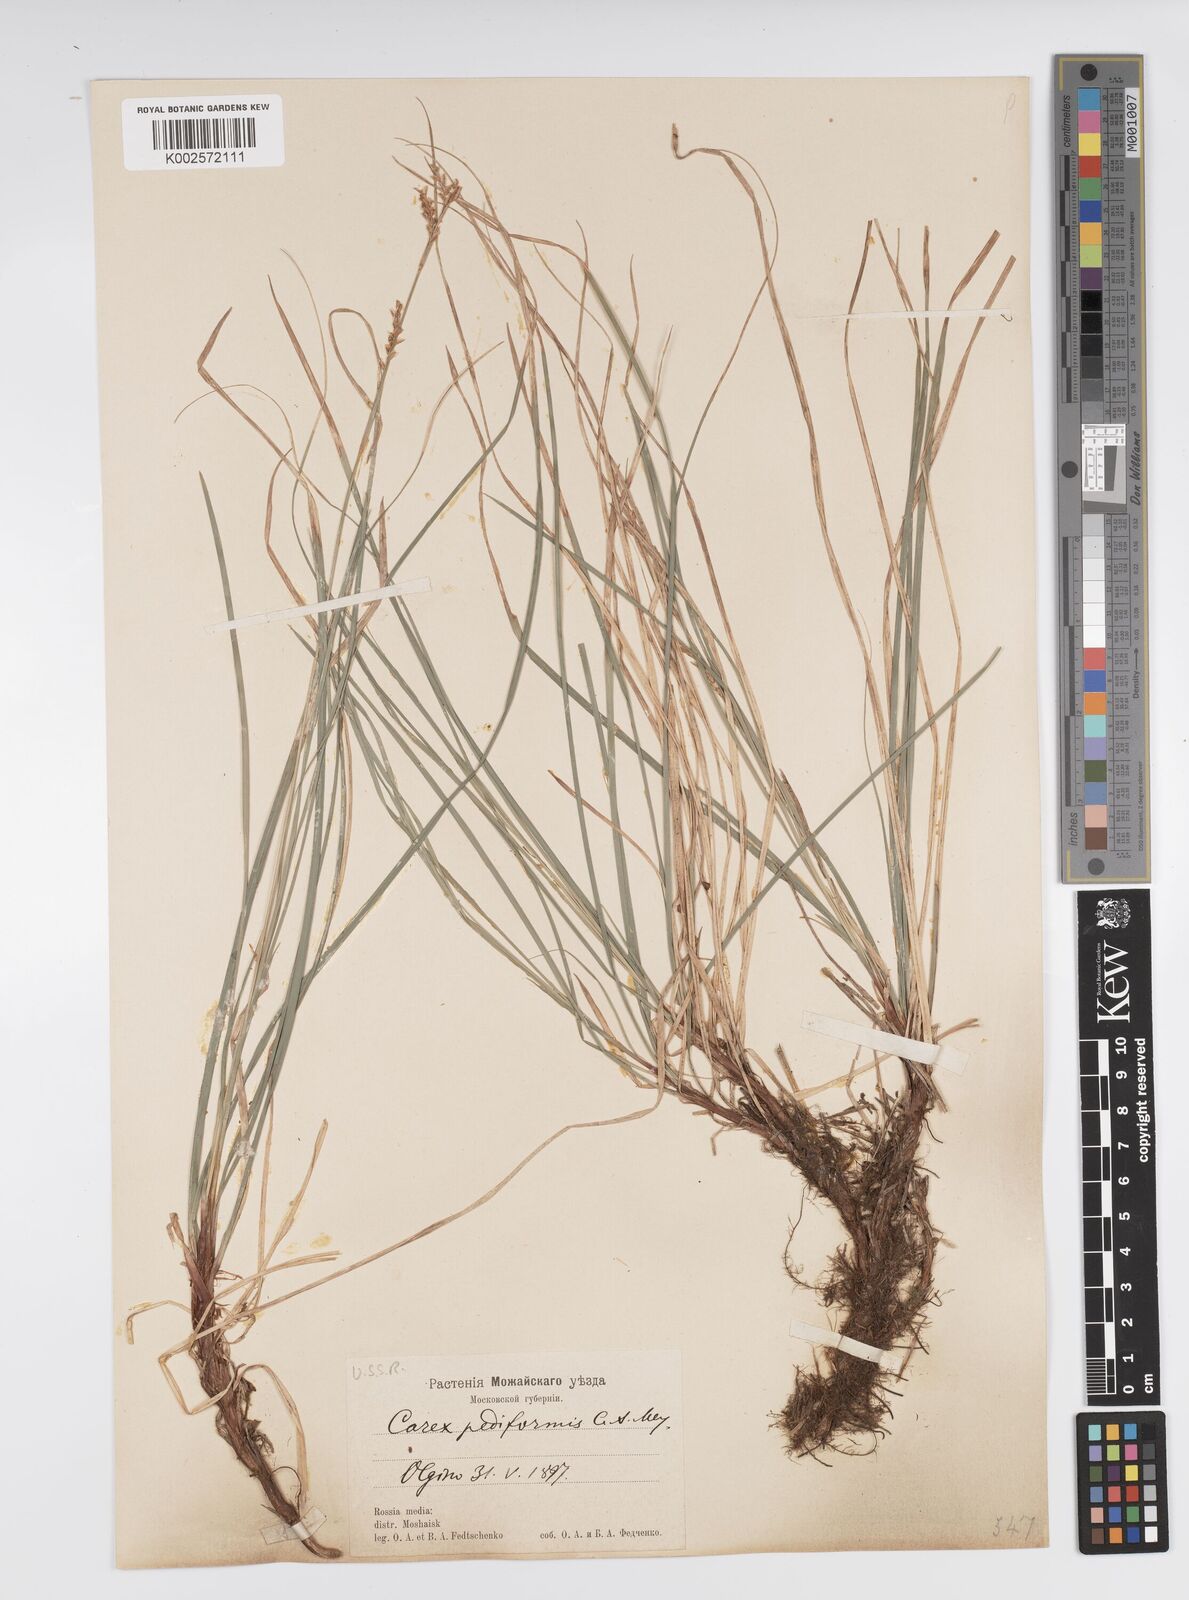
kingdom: Plantae
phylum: Tracheophyta
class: Liliopsida
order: Poales
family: Cyperaceae
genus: Carex
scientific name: Carex pediformis
